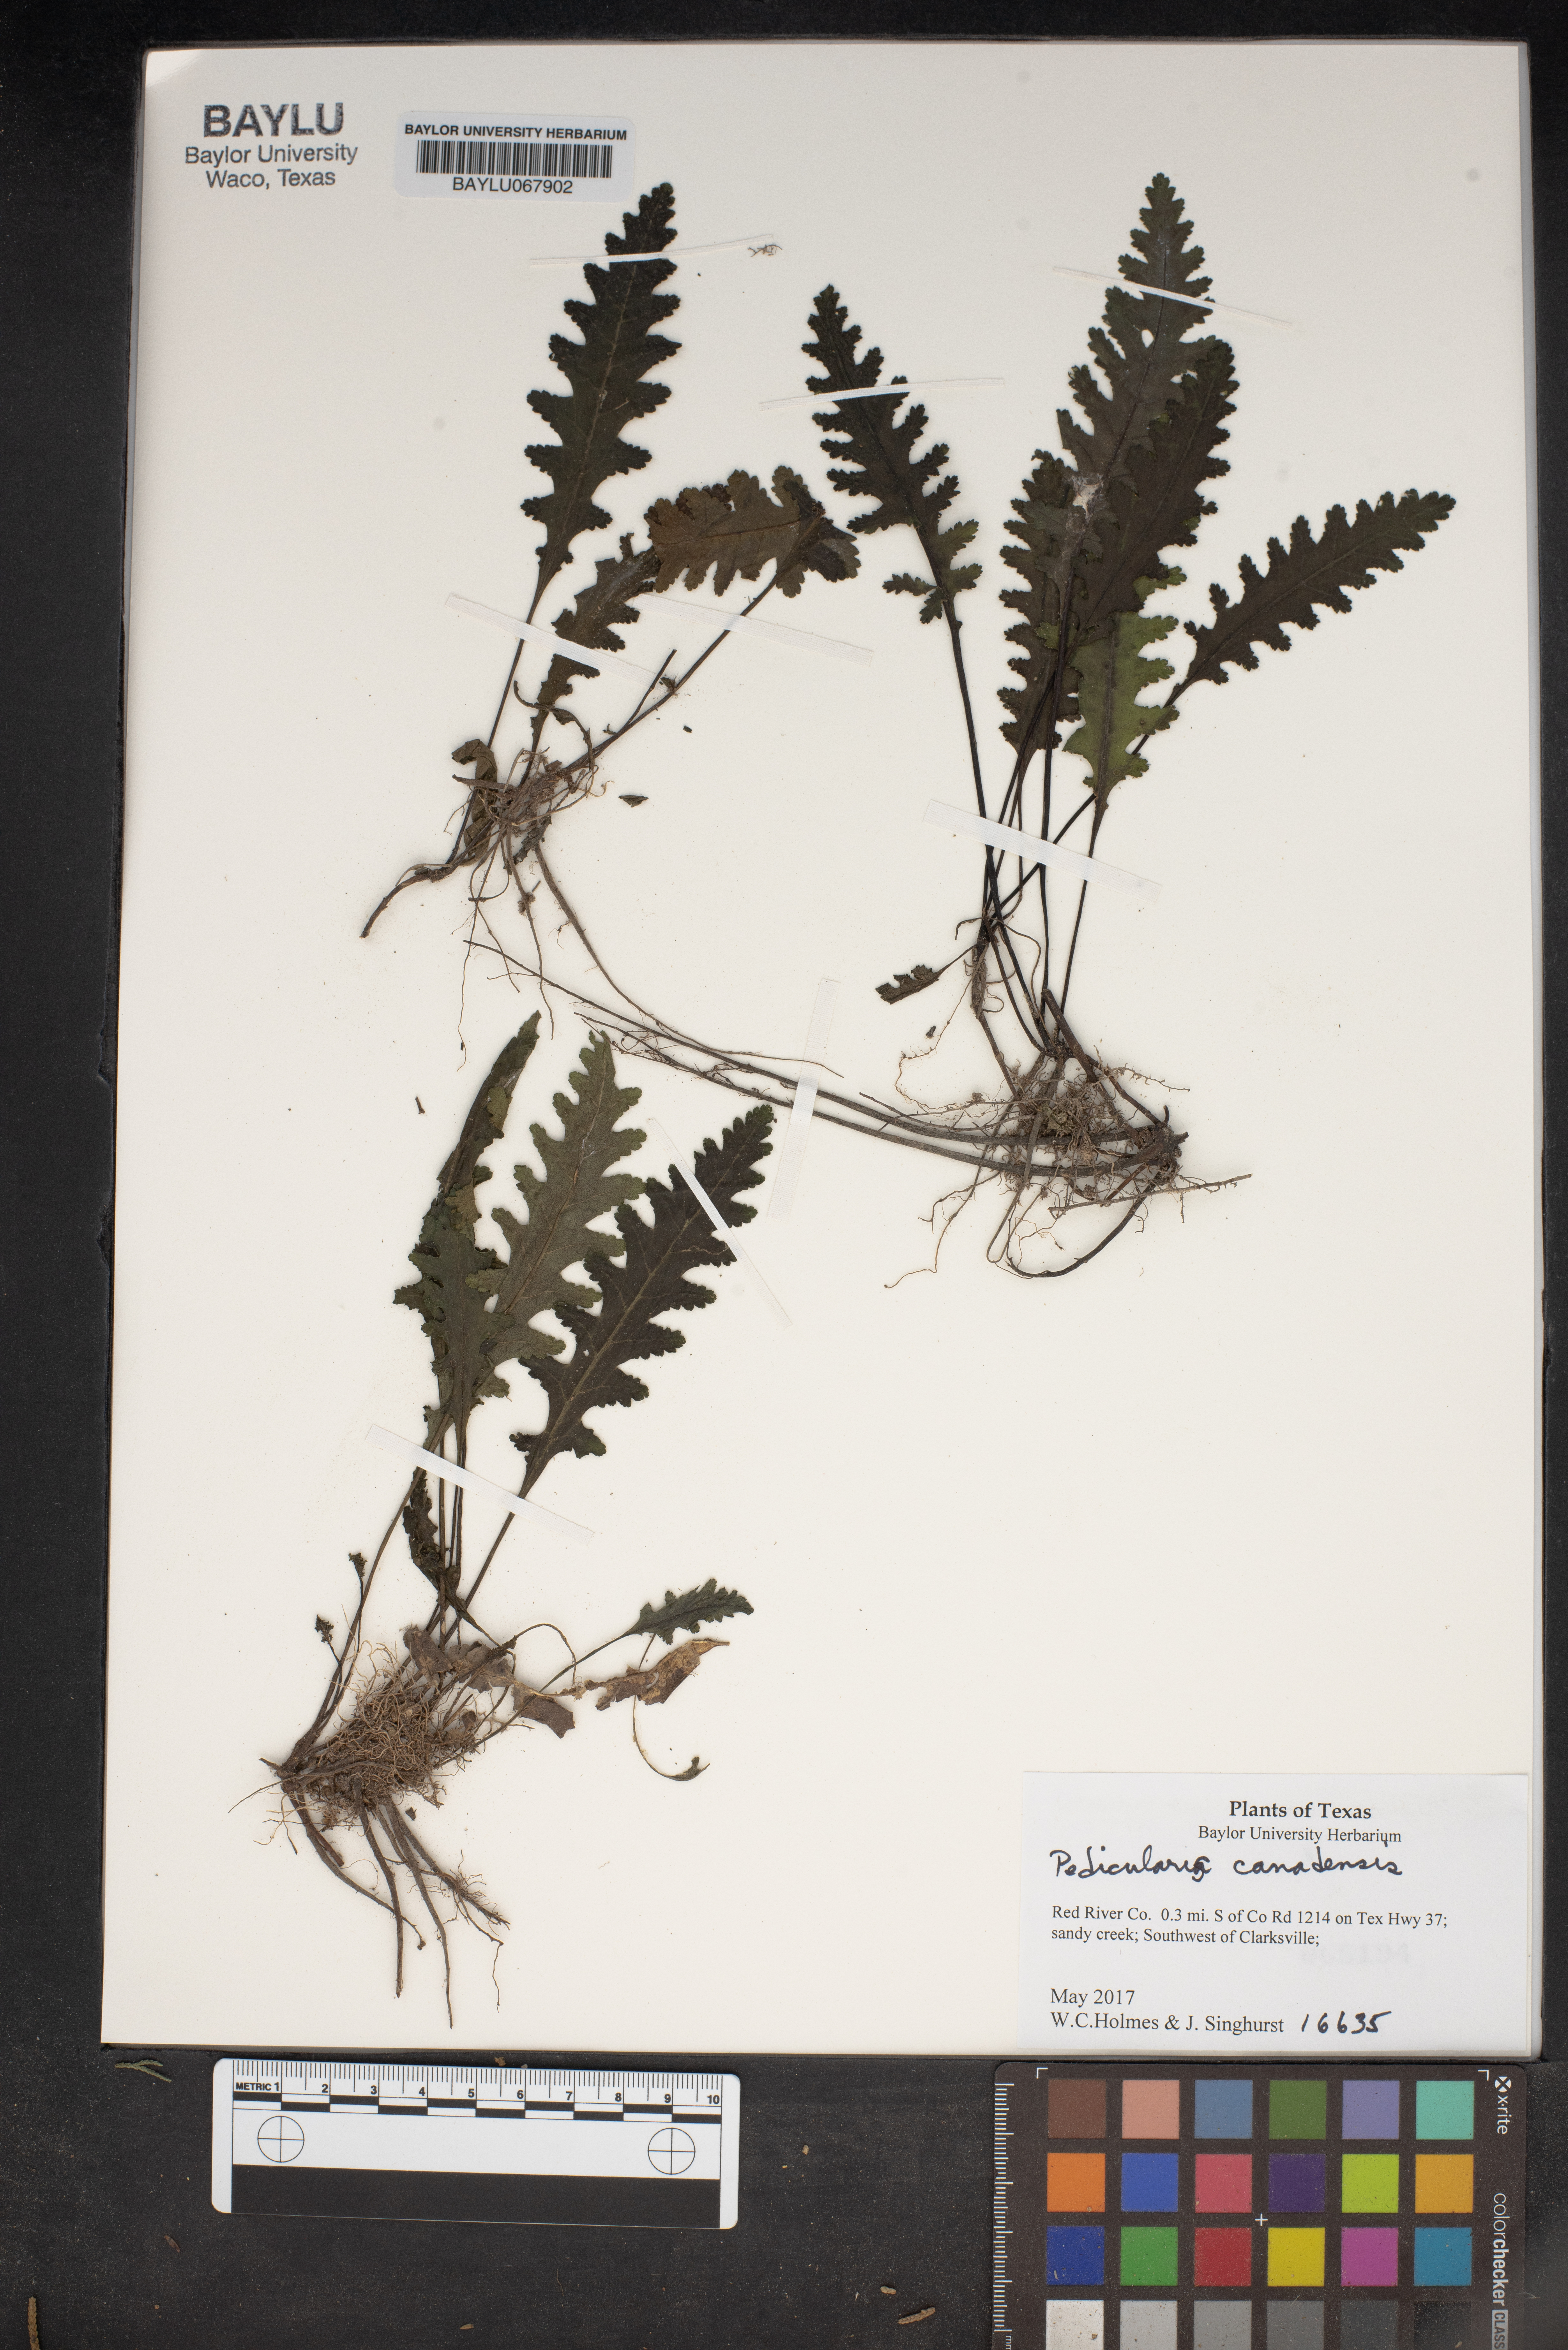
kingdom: Plantae
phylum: Tracheophyta
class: Magnoliopsida
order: Lamiales
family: Orobanchaceae
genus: Pedicularis
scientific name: Pedicularis canadensis
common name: Early lousewort
